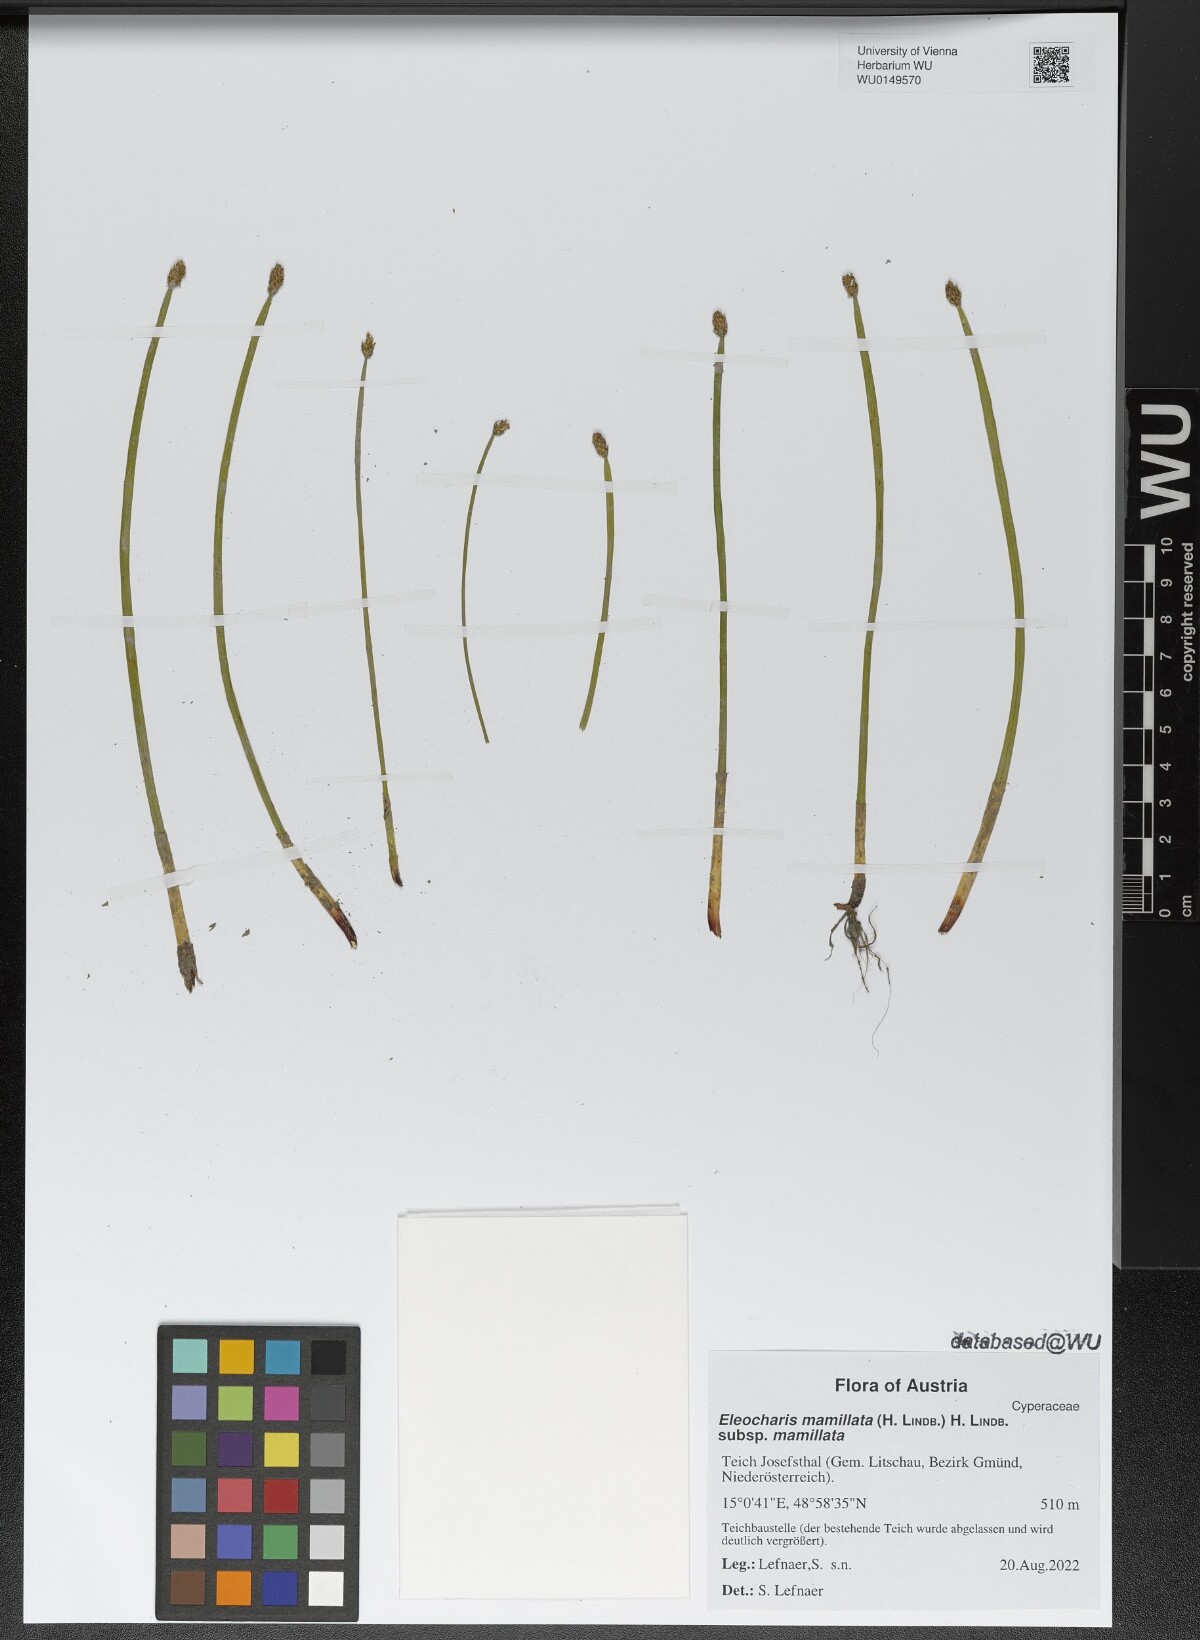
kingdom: Plantae
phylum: Tracheophyta
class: Liliopsida
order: Poales
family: Cyperaceae
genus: Eleocharis
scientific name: Eleocharis mamillata
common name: Northern spike-rush
